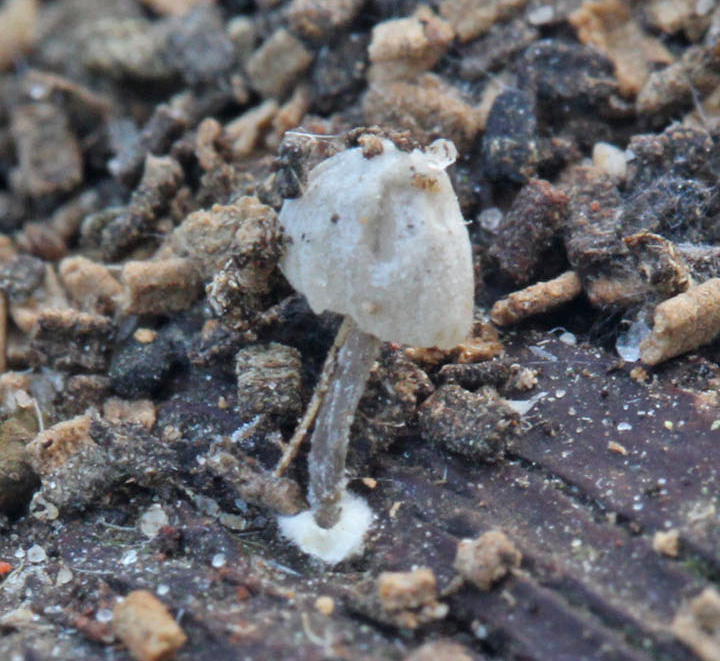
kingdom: Fungi
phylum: Basidiomycota
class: Agaricomycetes
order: Agaricales
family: Mycenaceae
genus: Mycena
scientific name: Mycena
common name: huesvamp
